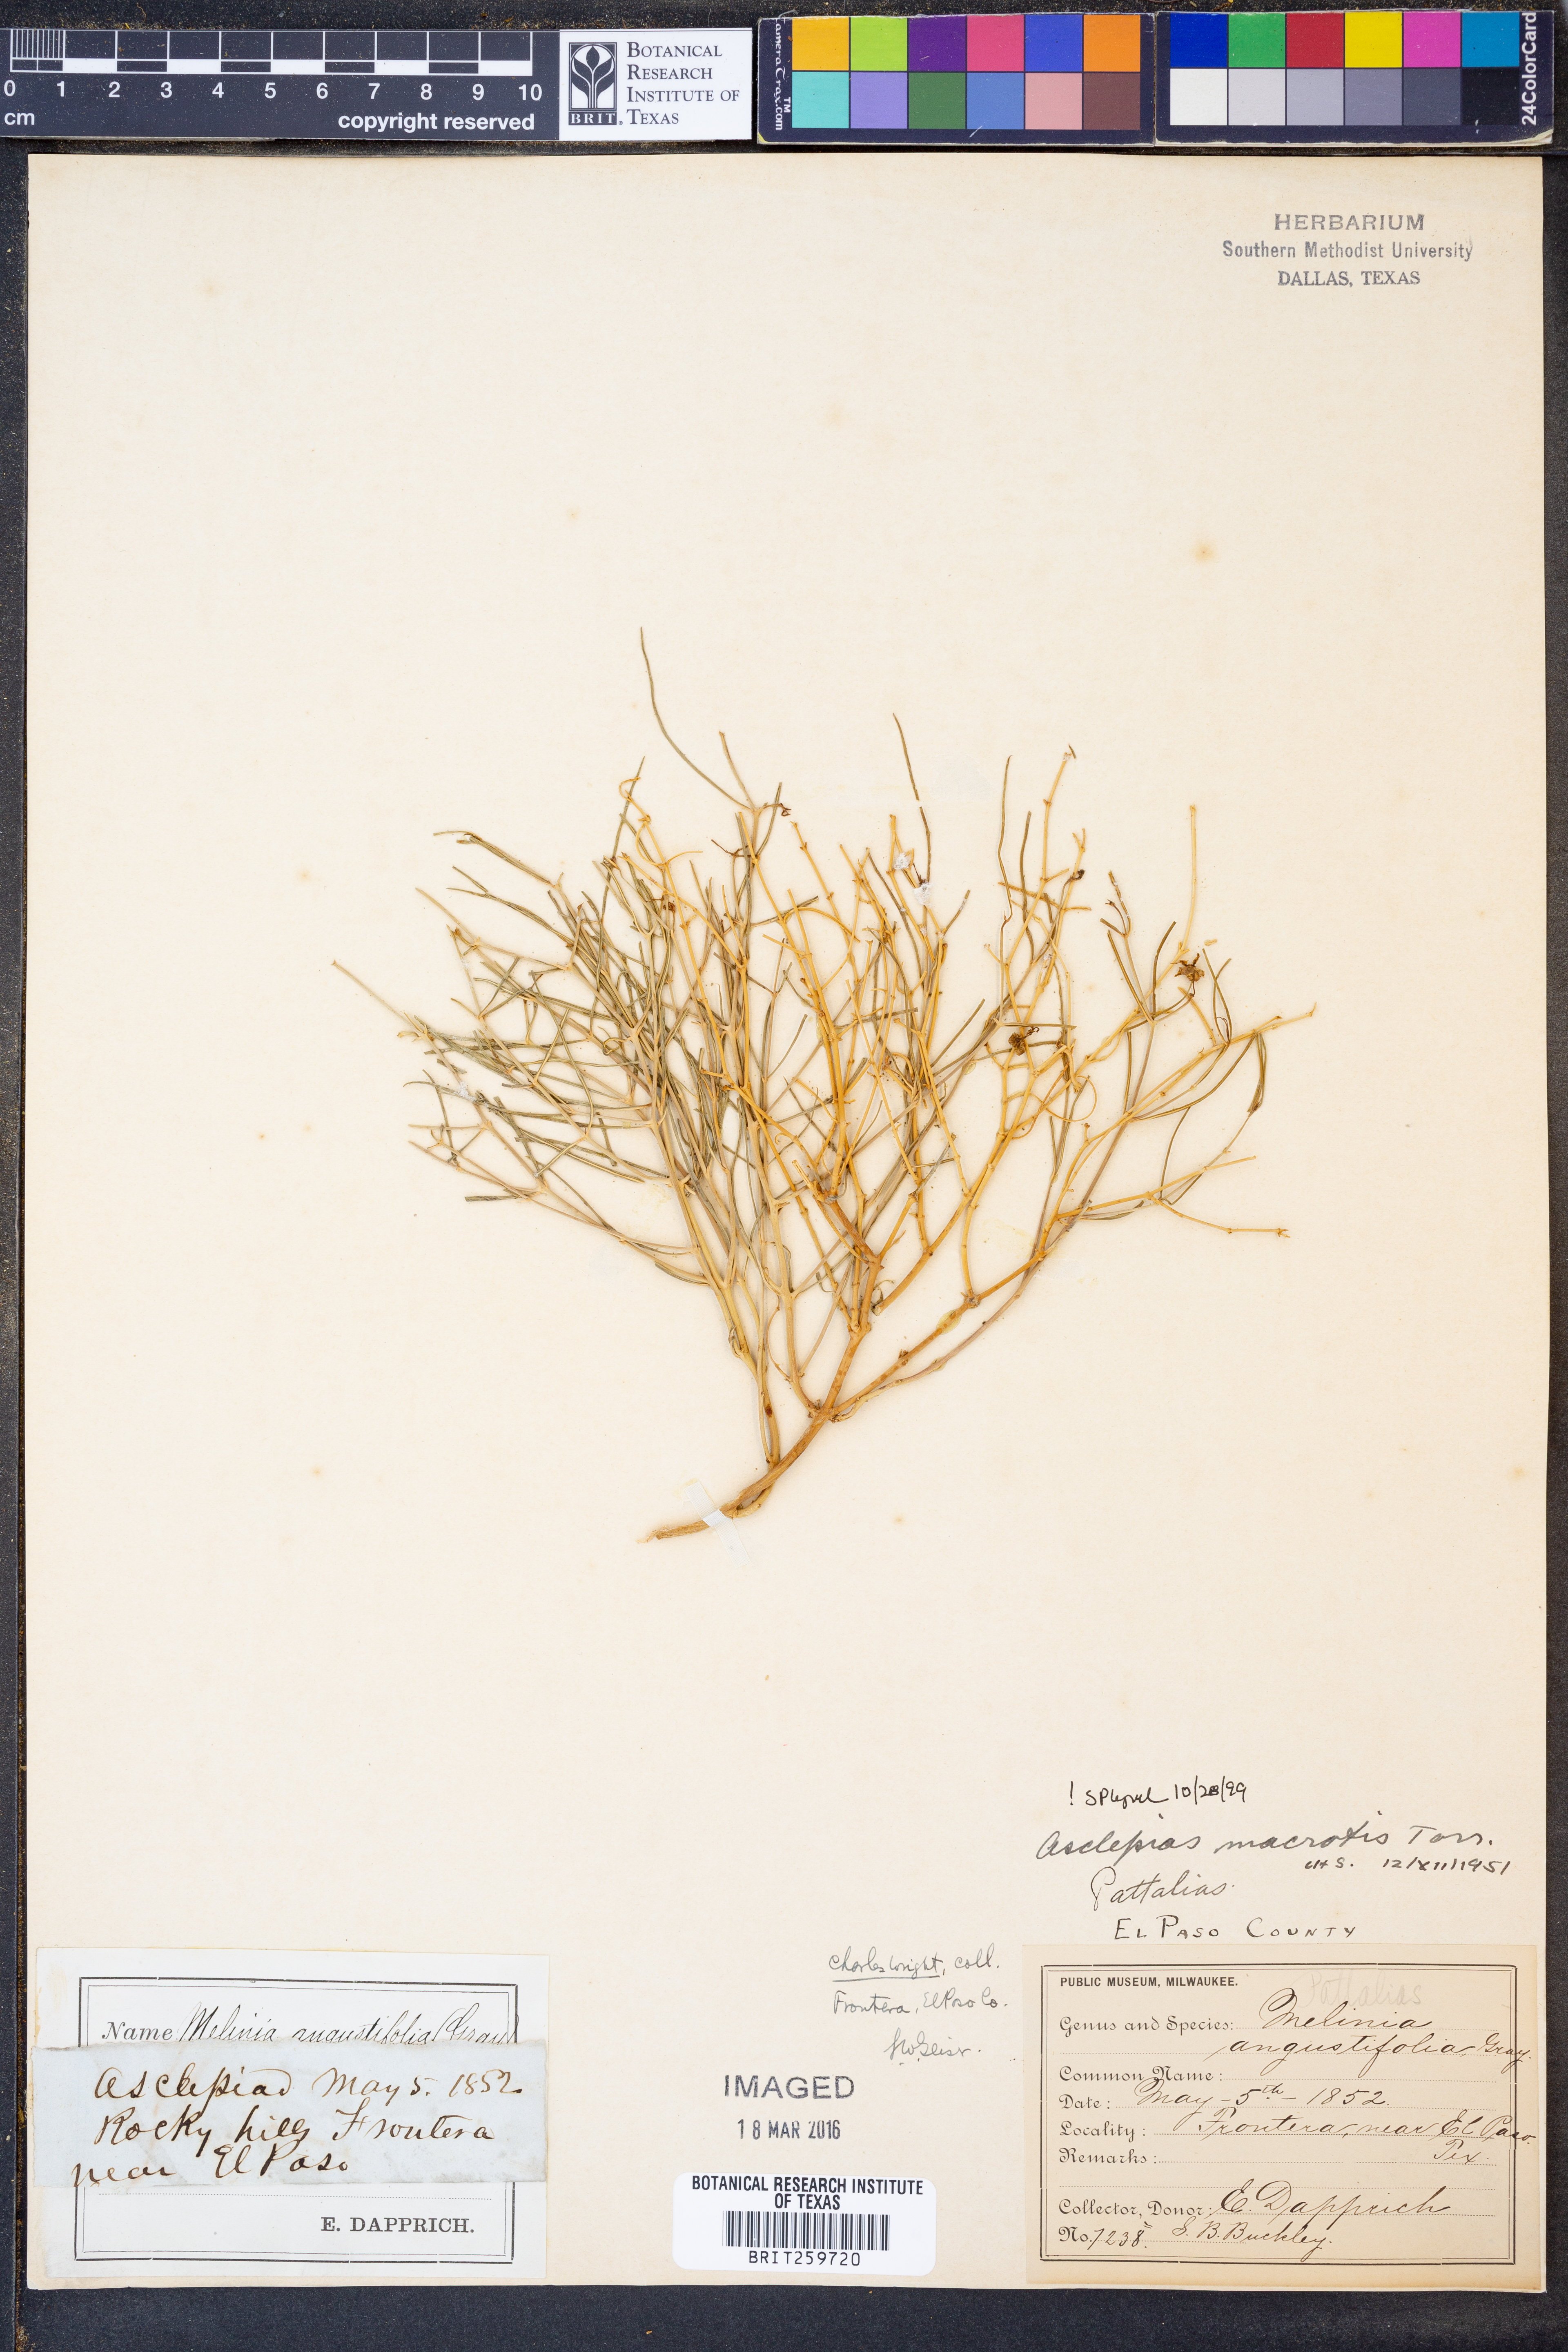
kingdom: Plantae
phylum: Tracheophyta
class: Magnoliopsida
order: Gentianales
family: Apocynaceae
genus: Asclepias
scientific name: Asclepias macrotis
